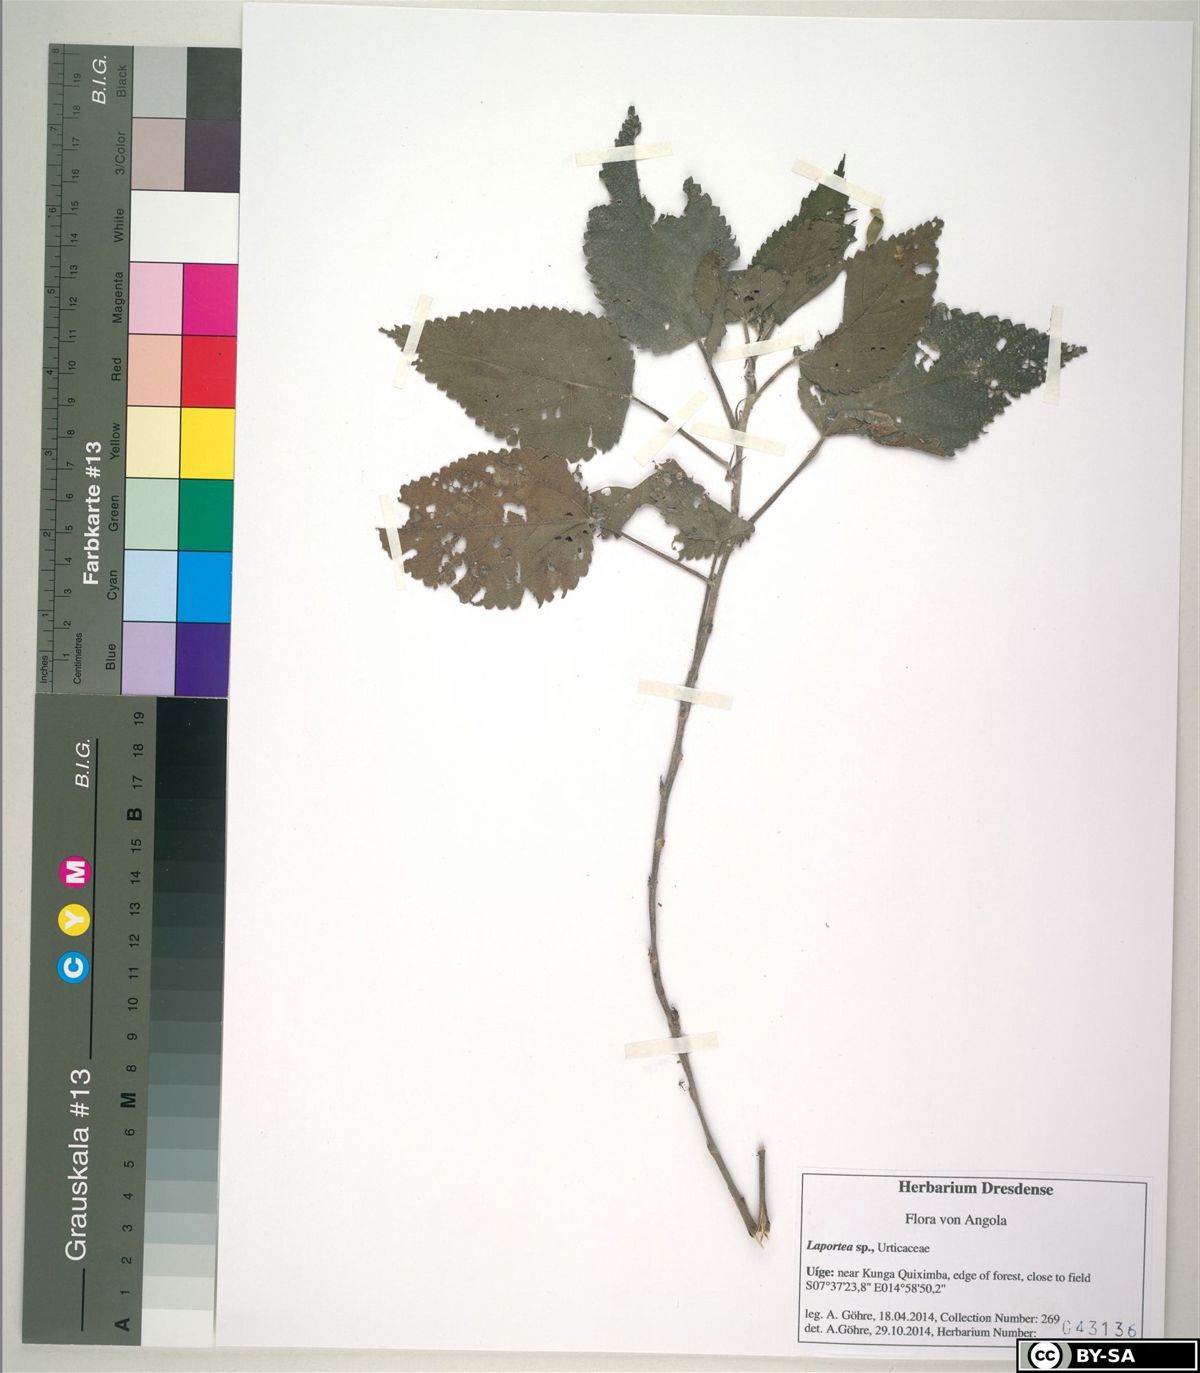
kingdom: Plantae
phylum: Tracheophyta
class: Magnoliopsida
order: Rosales
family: Urticaceae
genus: Laportea
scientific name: Laportea
